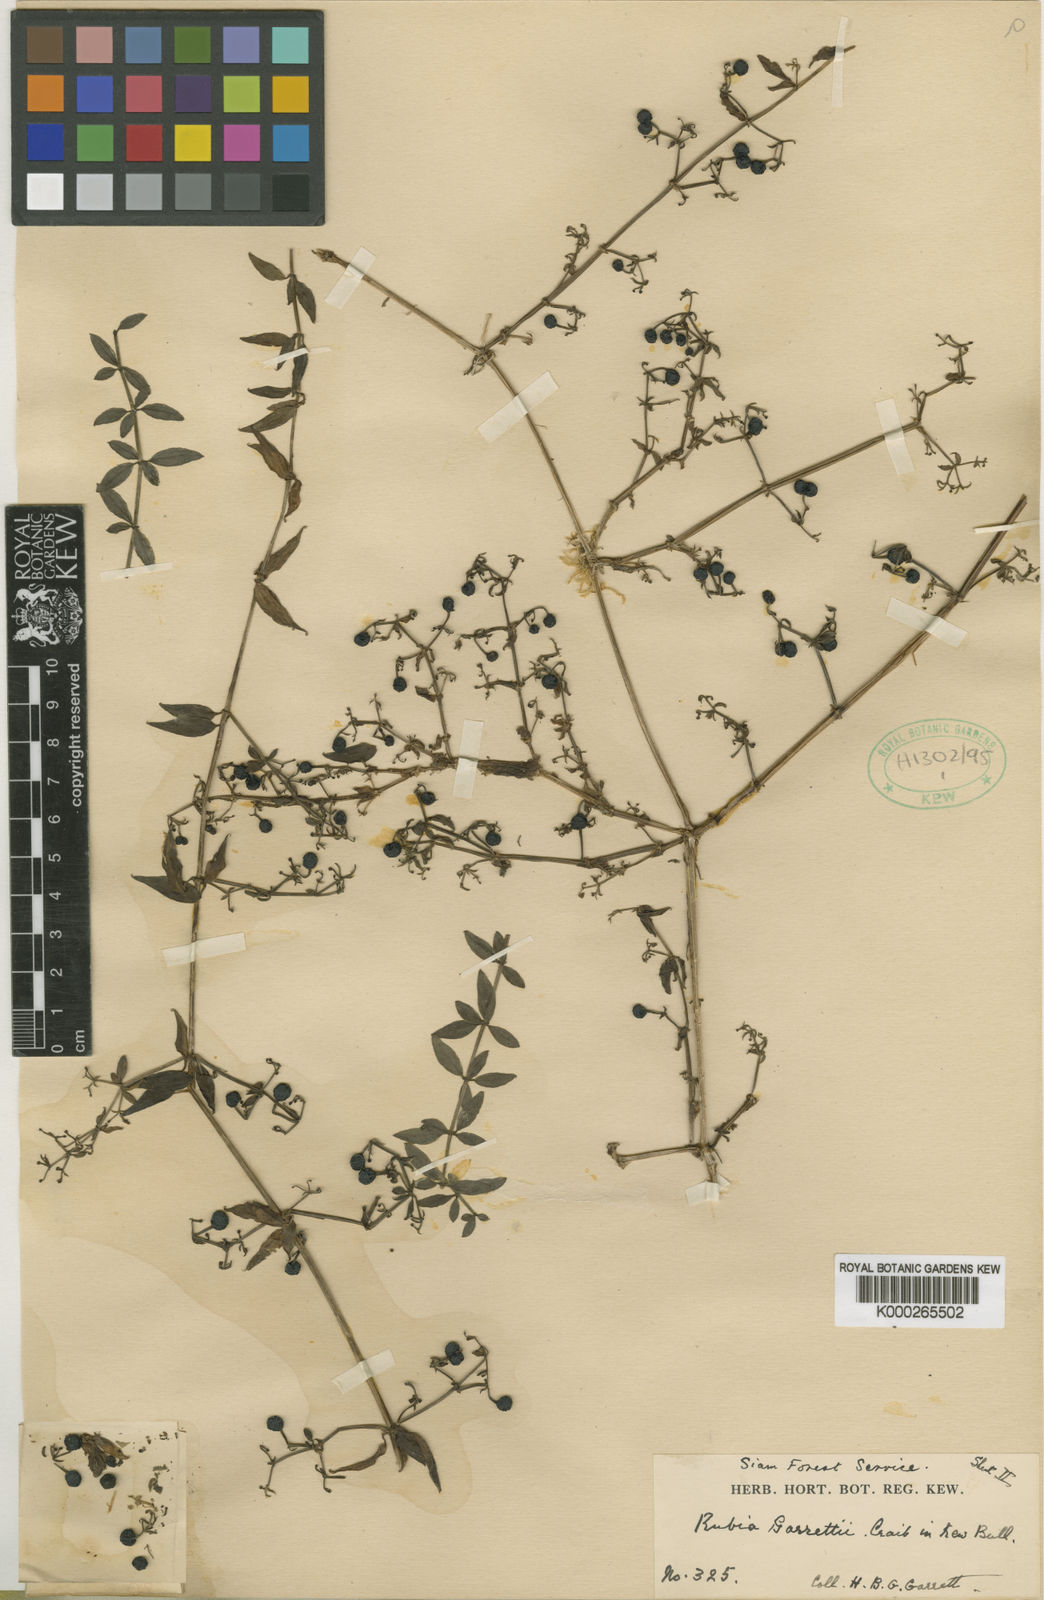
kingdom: Plantae
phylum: Tracheophyta
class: Magnoliopsida
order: Gentianales
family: Rubiaceae
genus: Rubia
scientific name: Rubia garrettii
